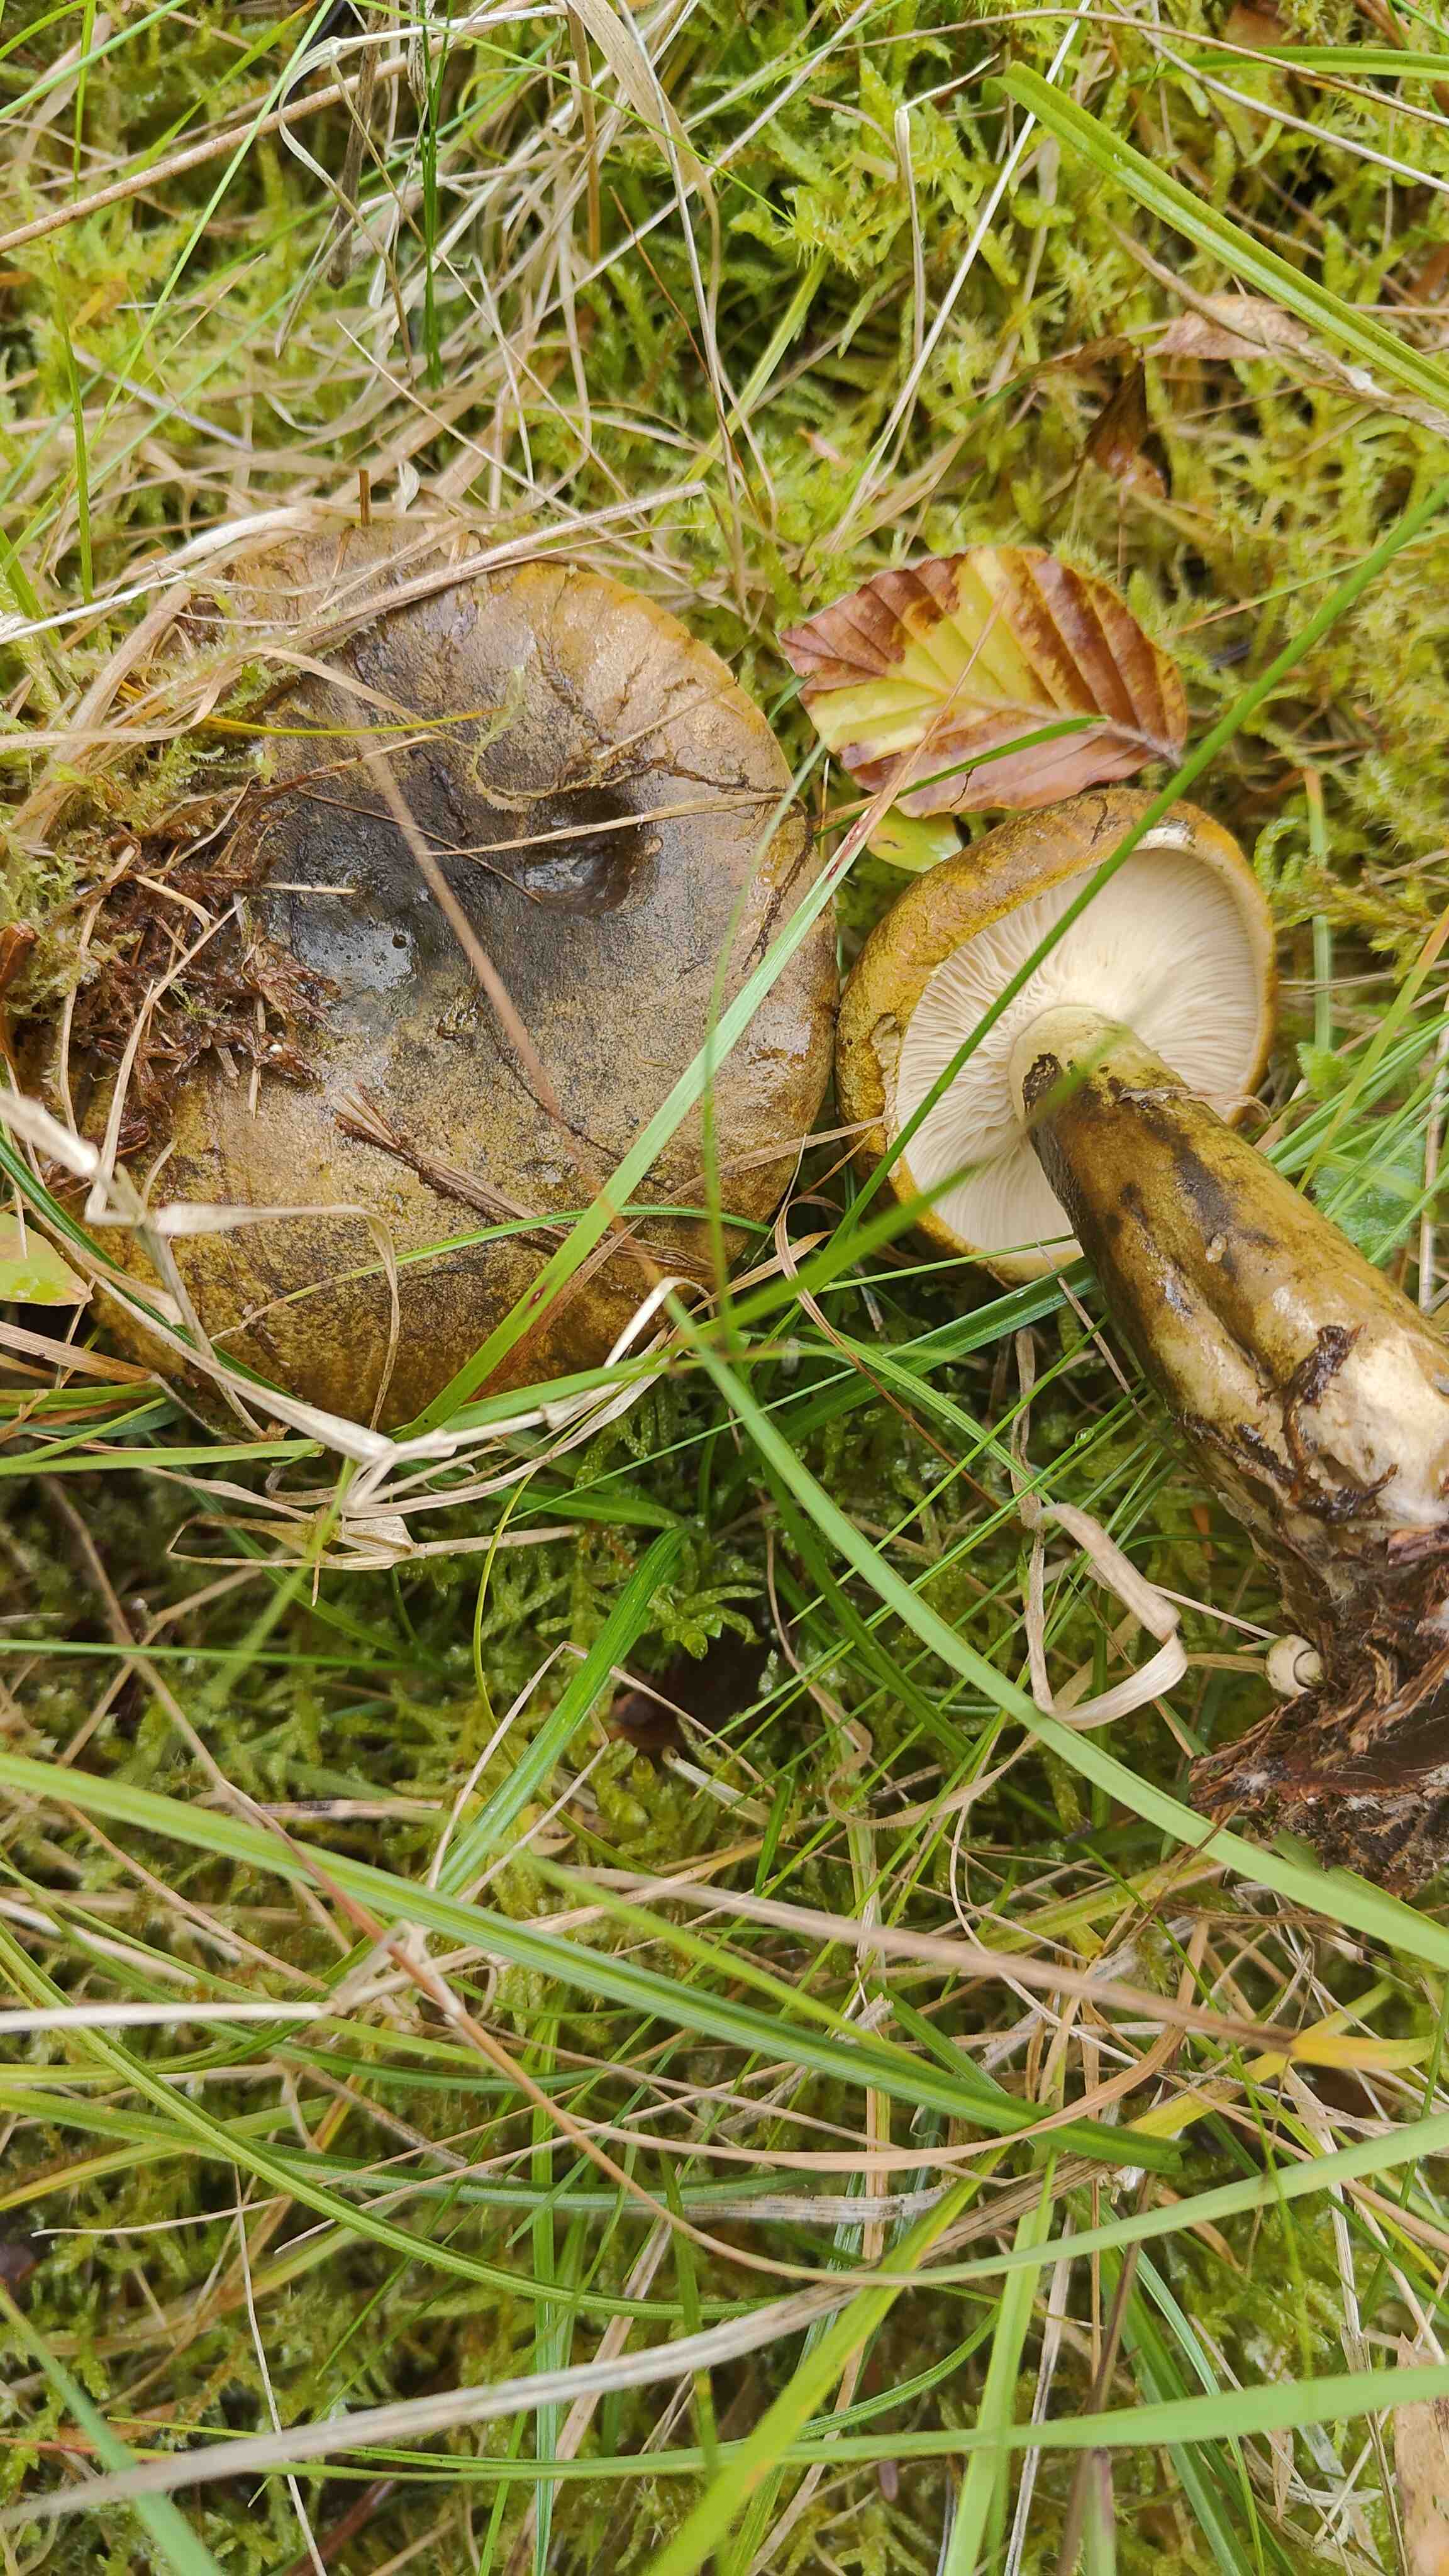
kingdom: Fungi
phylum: Basidiomycota
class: Agaricomycetes
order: Russulales
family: Russulaceae
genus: Lactarius
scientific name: Lactarius necator
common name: manddraber-mælkehat
